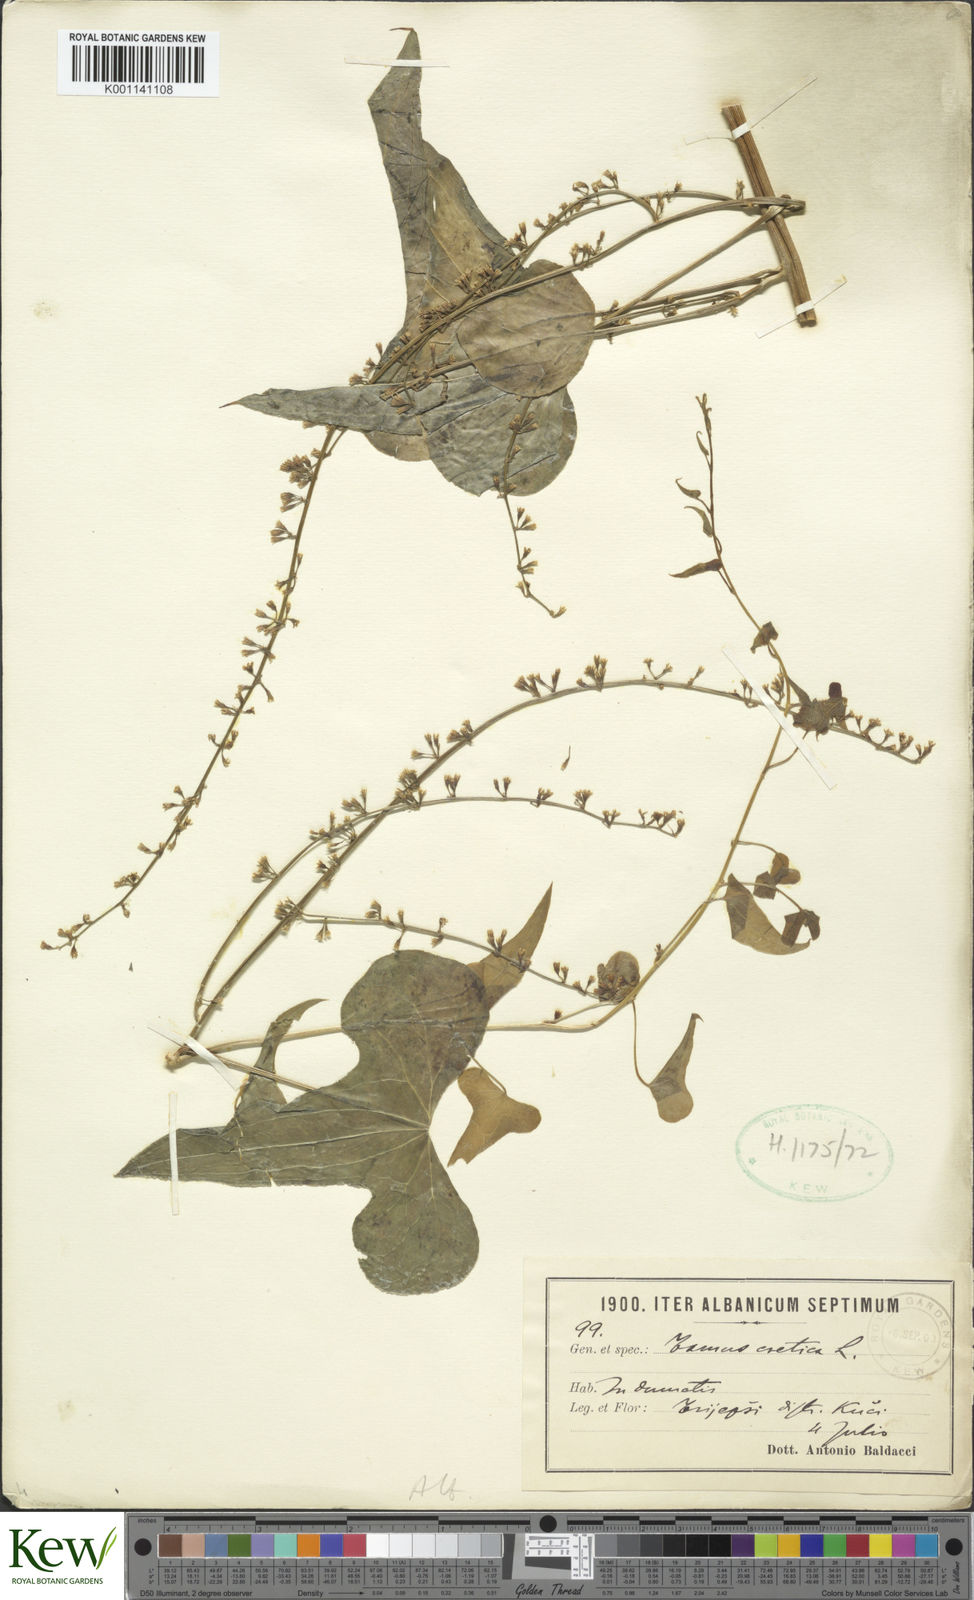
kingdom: Plantae
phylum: Tracheophyta
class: Liliopsida
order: Dioscoreales
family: Dioscoreaceae
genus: Dioscorea
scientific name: Dioscorea communis
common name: Black-bindweed
